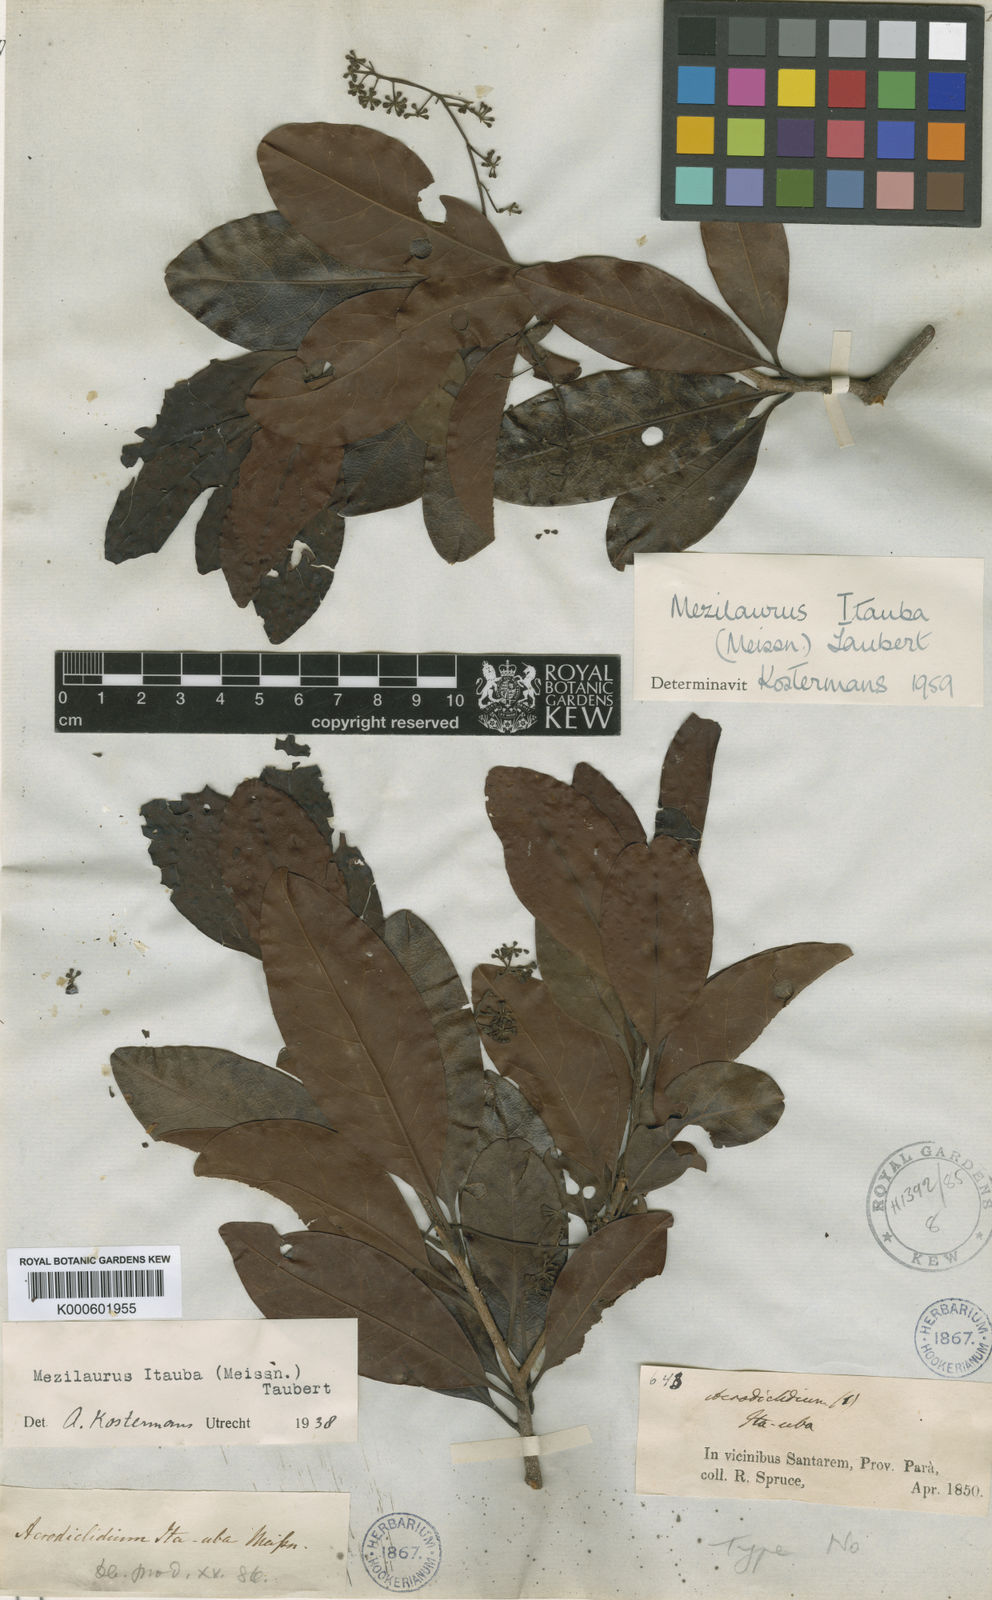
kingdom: Plantae
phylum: Tracheophyta
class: Magnoliopsida
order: Laurales
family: Lauraceae
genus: Mezilaurus
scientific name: Mezilaurus ita-uba
